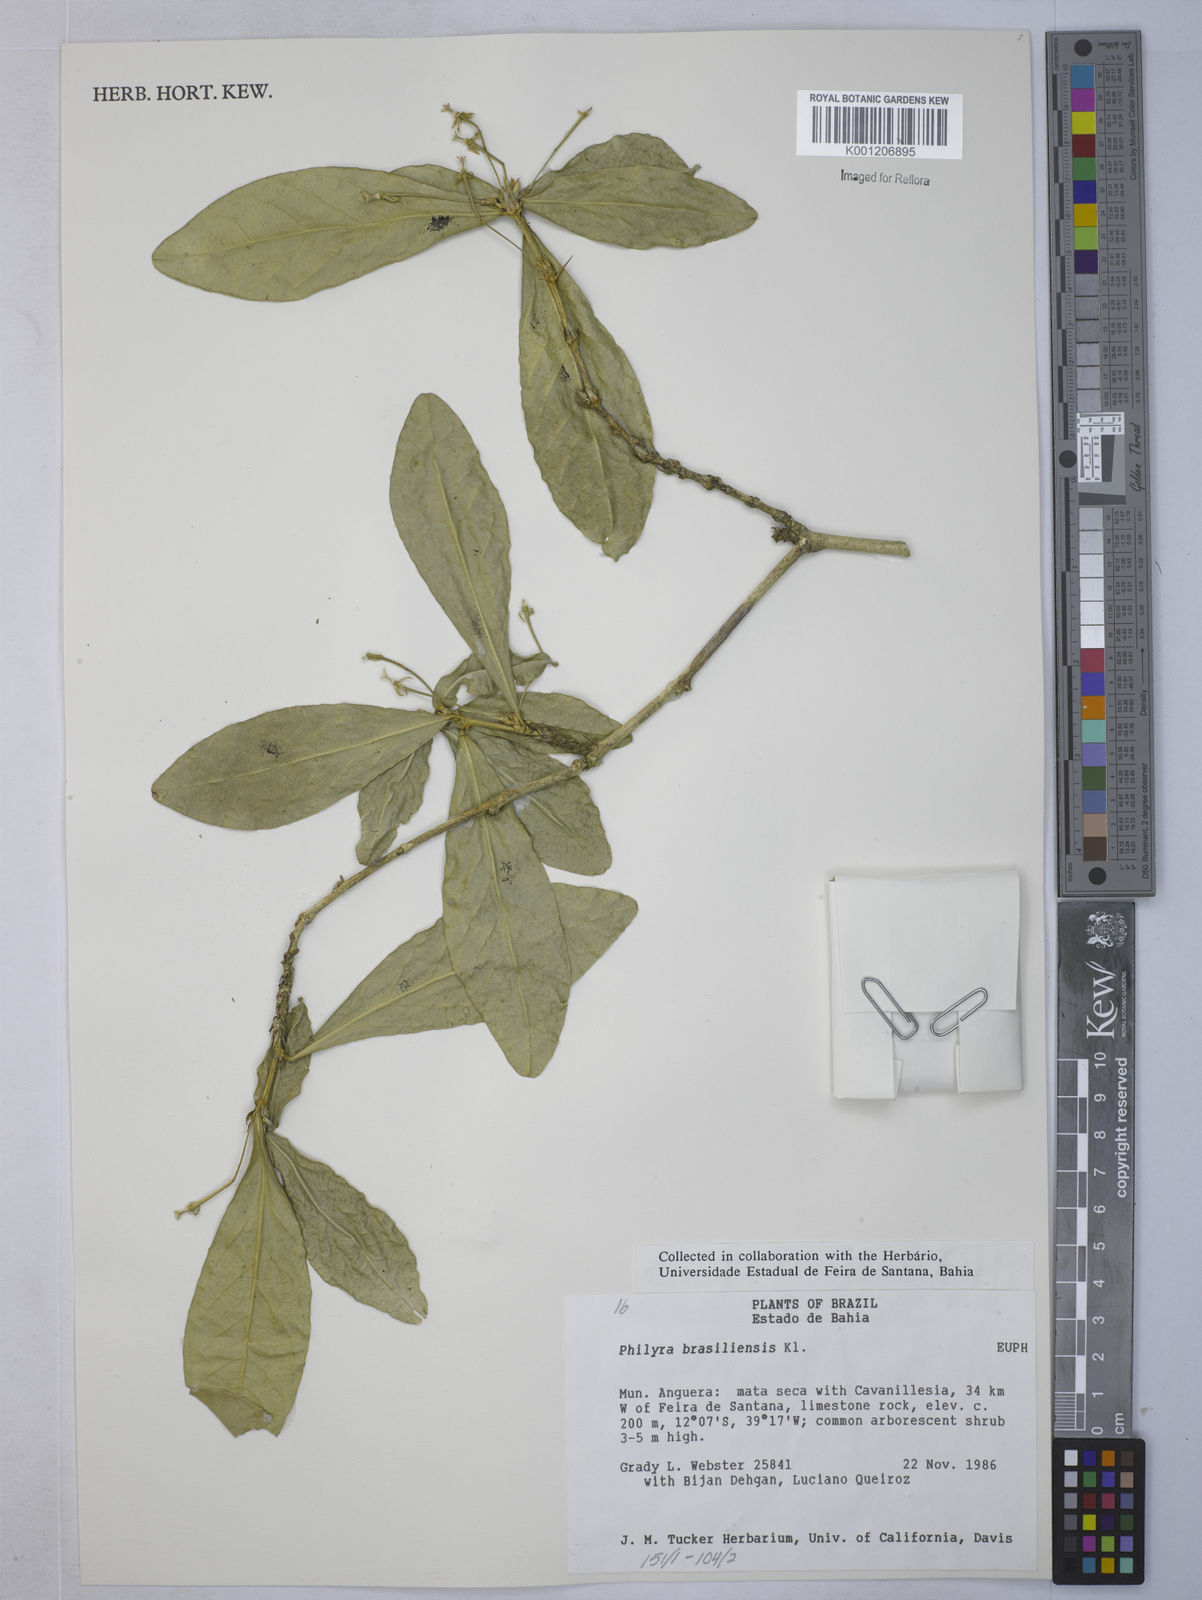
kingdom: Plantae
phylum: Tracheophyta
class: Magnoliopsida
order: Malpighiales
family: Euphorbiaceae
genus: Philyra
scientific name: Philyra brasiliensis
